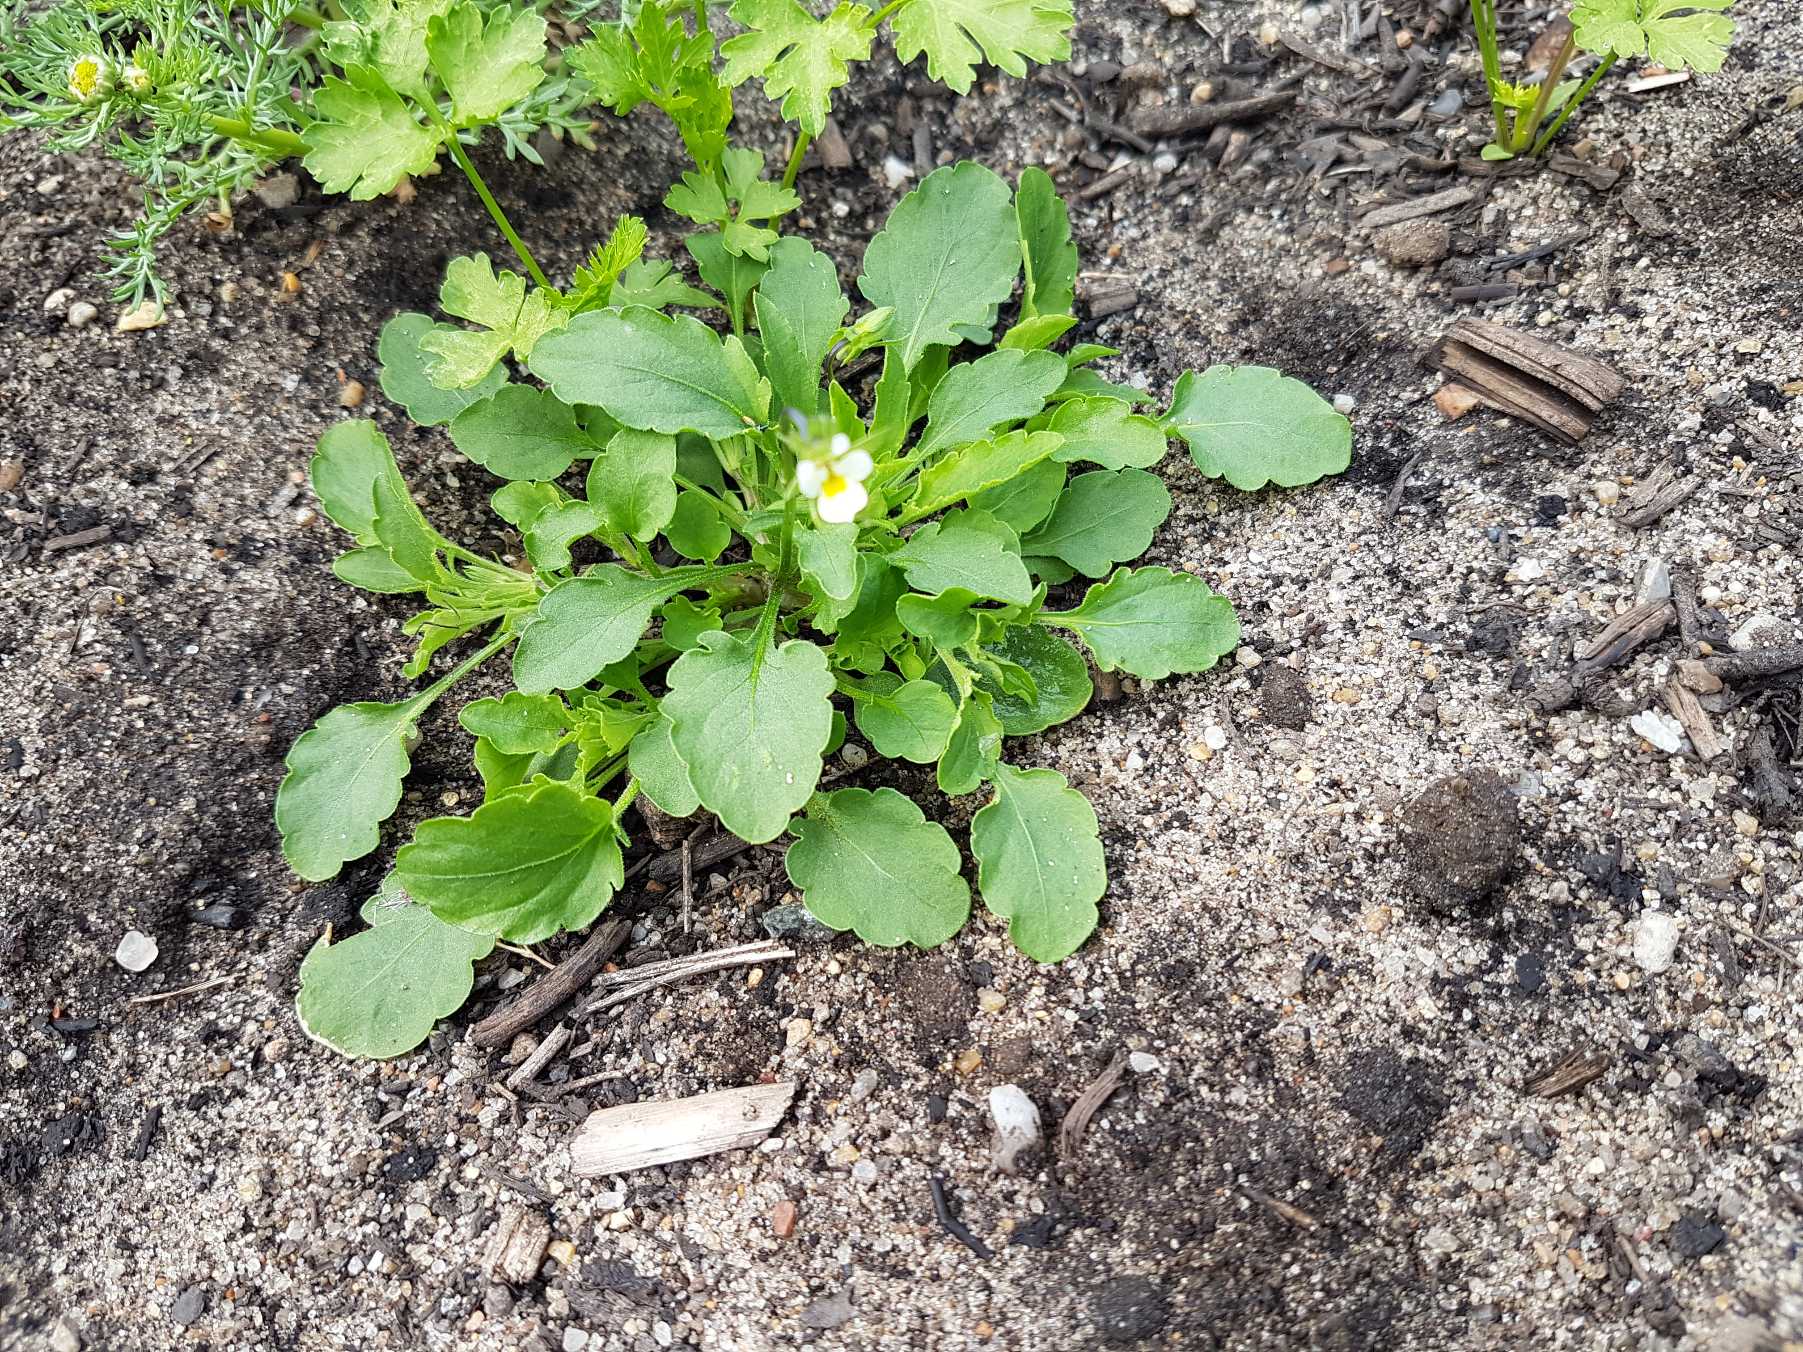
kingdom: Plantae
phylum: Tracheophyta
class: Magnoliopsida
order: Malpighiales
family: Violaceae
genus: Viola
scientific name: Viola arvensis
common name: Ager-stedmoderblomst
